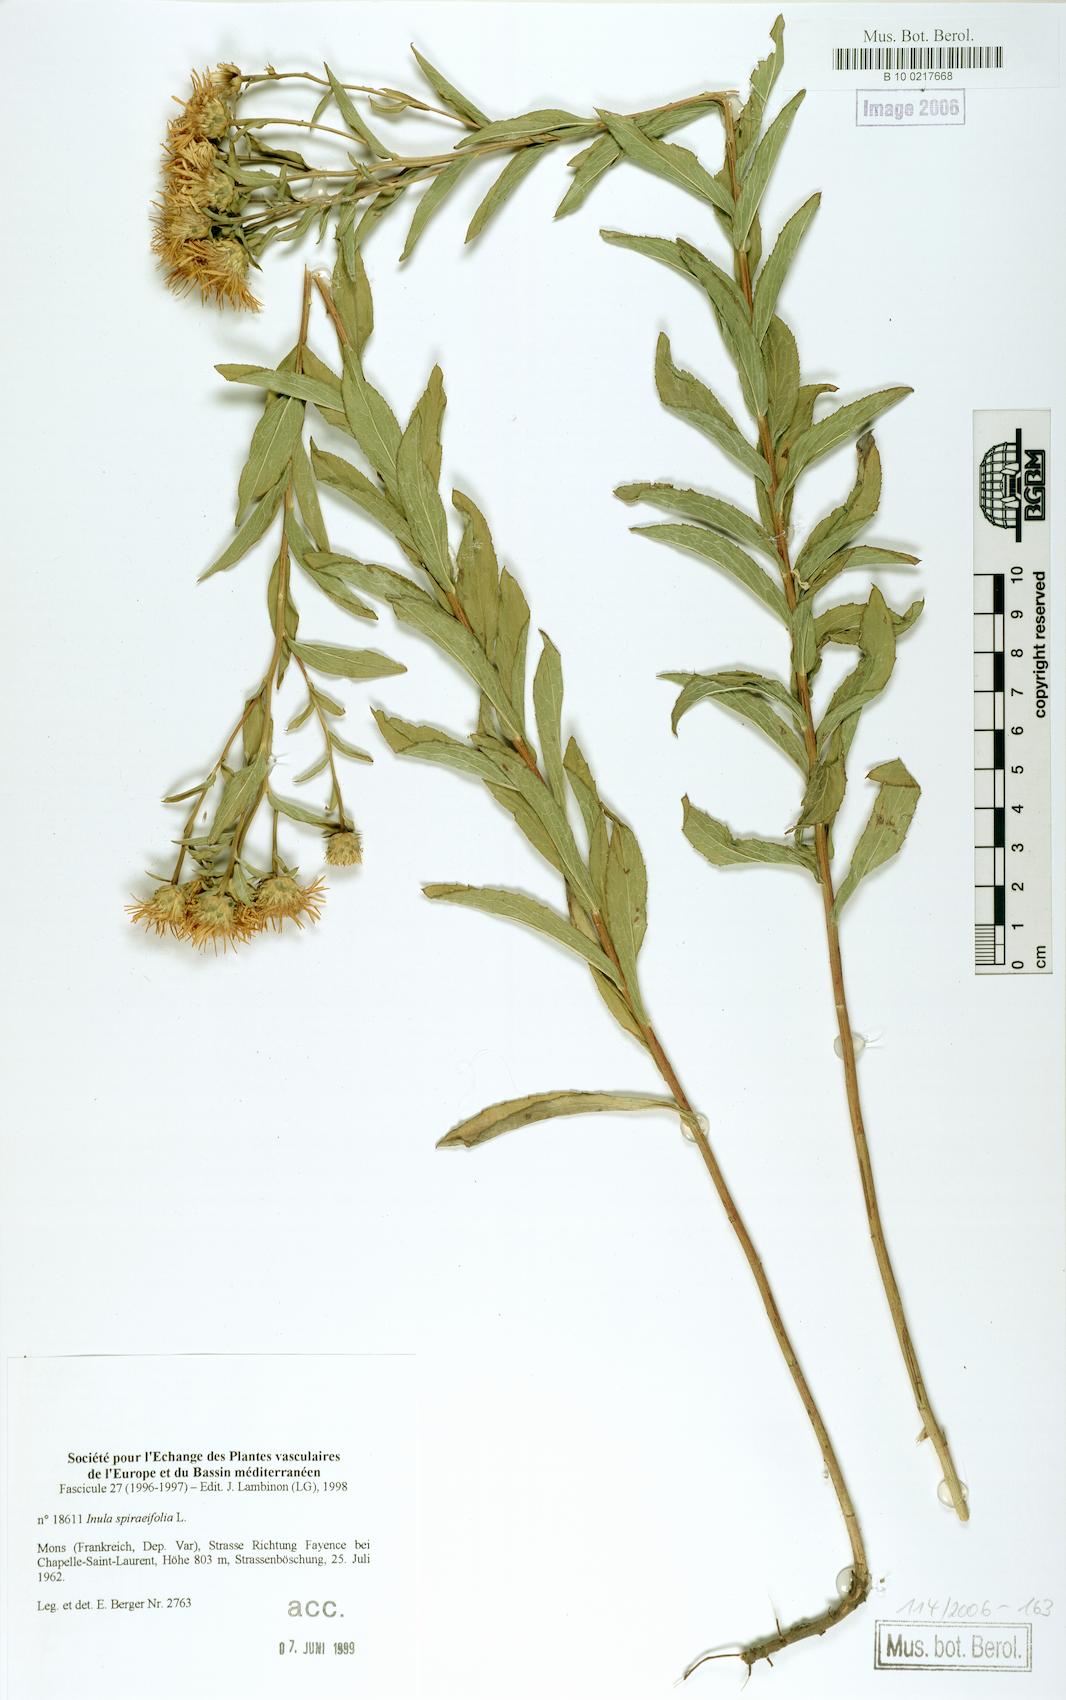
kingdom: Plantae
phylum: Tracheophyta
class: Magnoliopsida
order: Asterales
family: Asteraceae
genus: Pentanema
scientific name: Pentanema spiraeifolium
